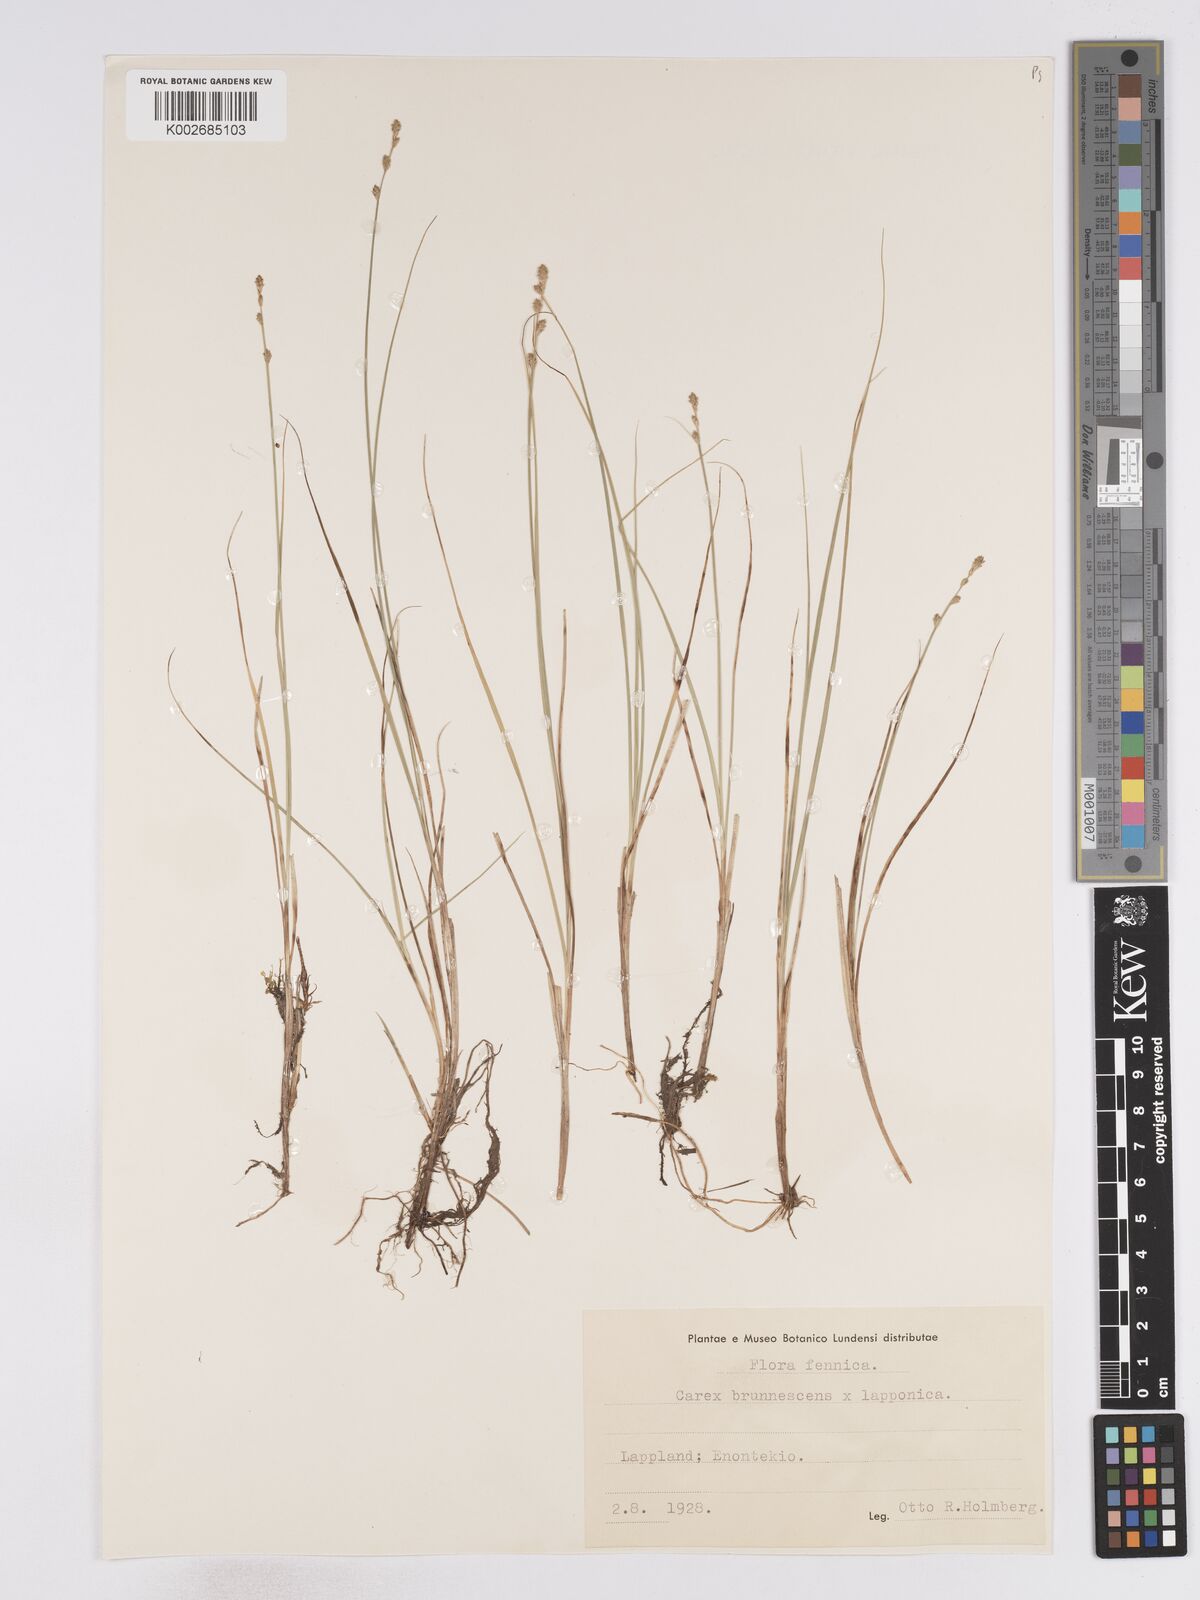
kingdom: Plantae
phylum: Tracheophyta
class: Liliopsida
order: Poales
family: Cyperaceae
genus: Carex
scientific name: Carex brunnescens
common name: Brown sedge
